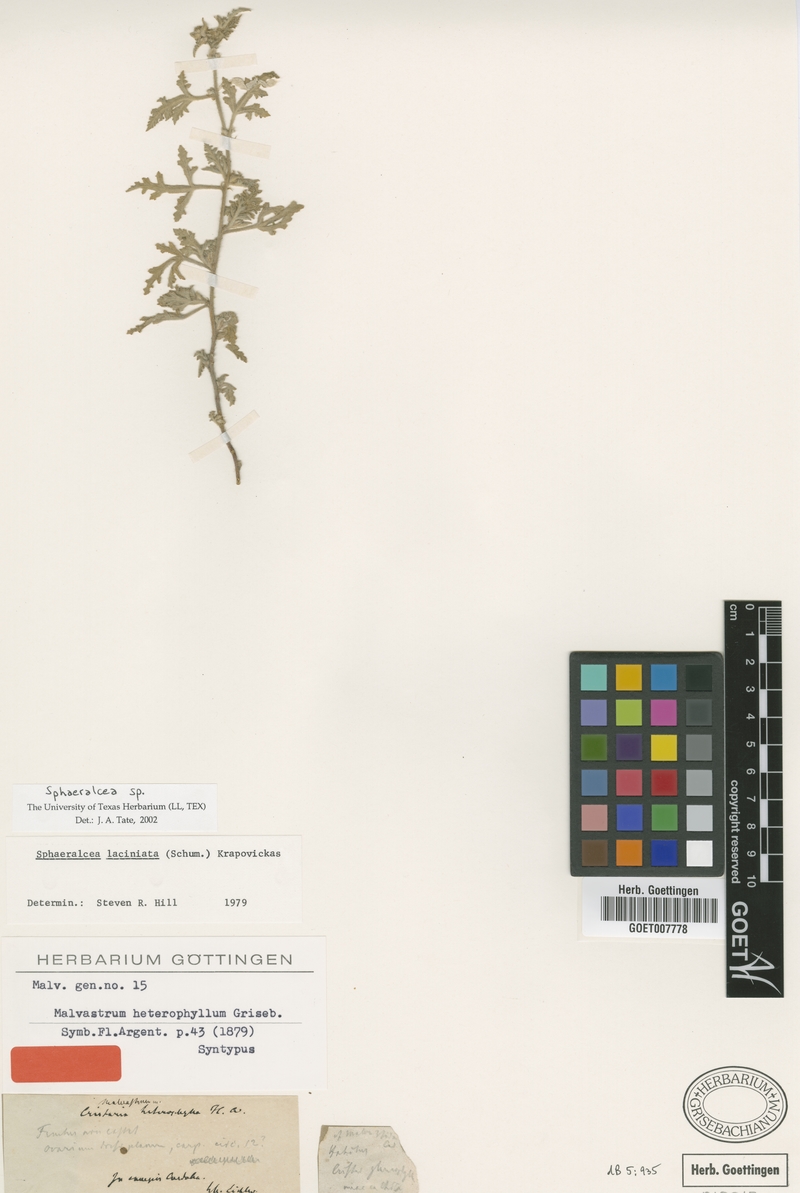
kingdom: Plantae
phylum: Tracheophyta
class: Magnoliopsida
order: Malvales
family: Malvaceae
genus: Sphaeralcea
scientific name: Sphaeralcea laciniata
